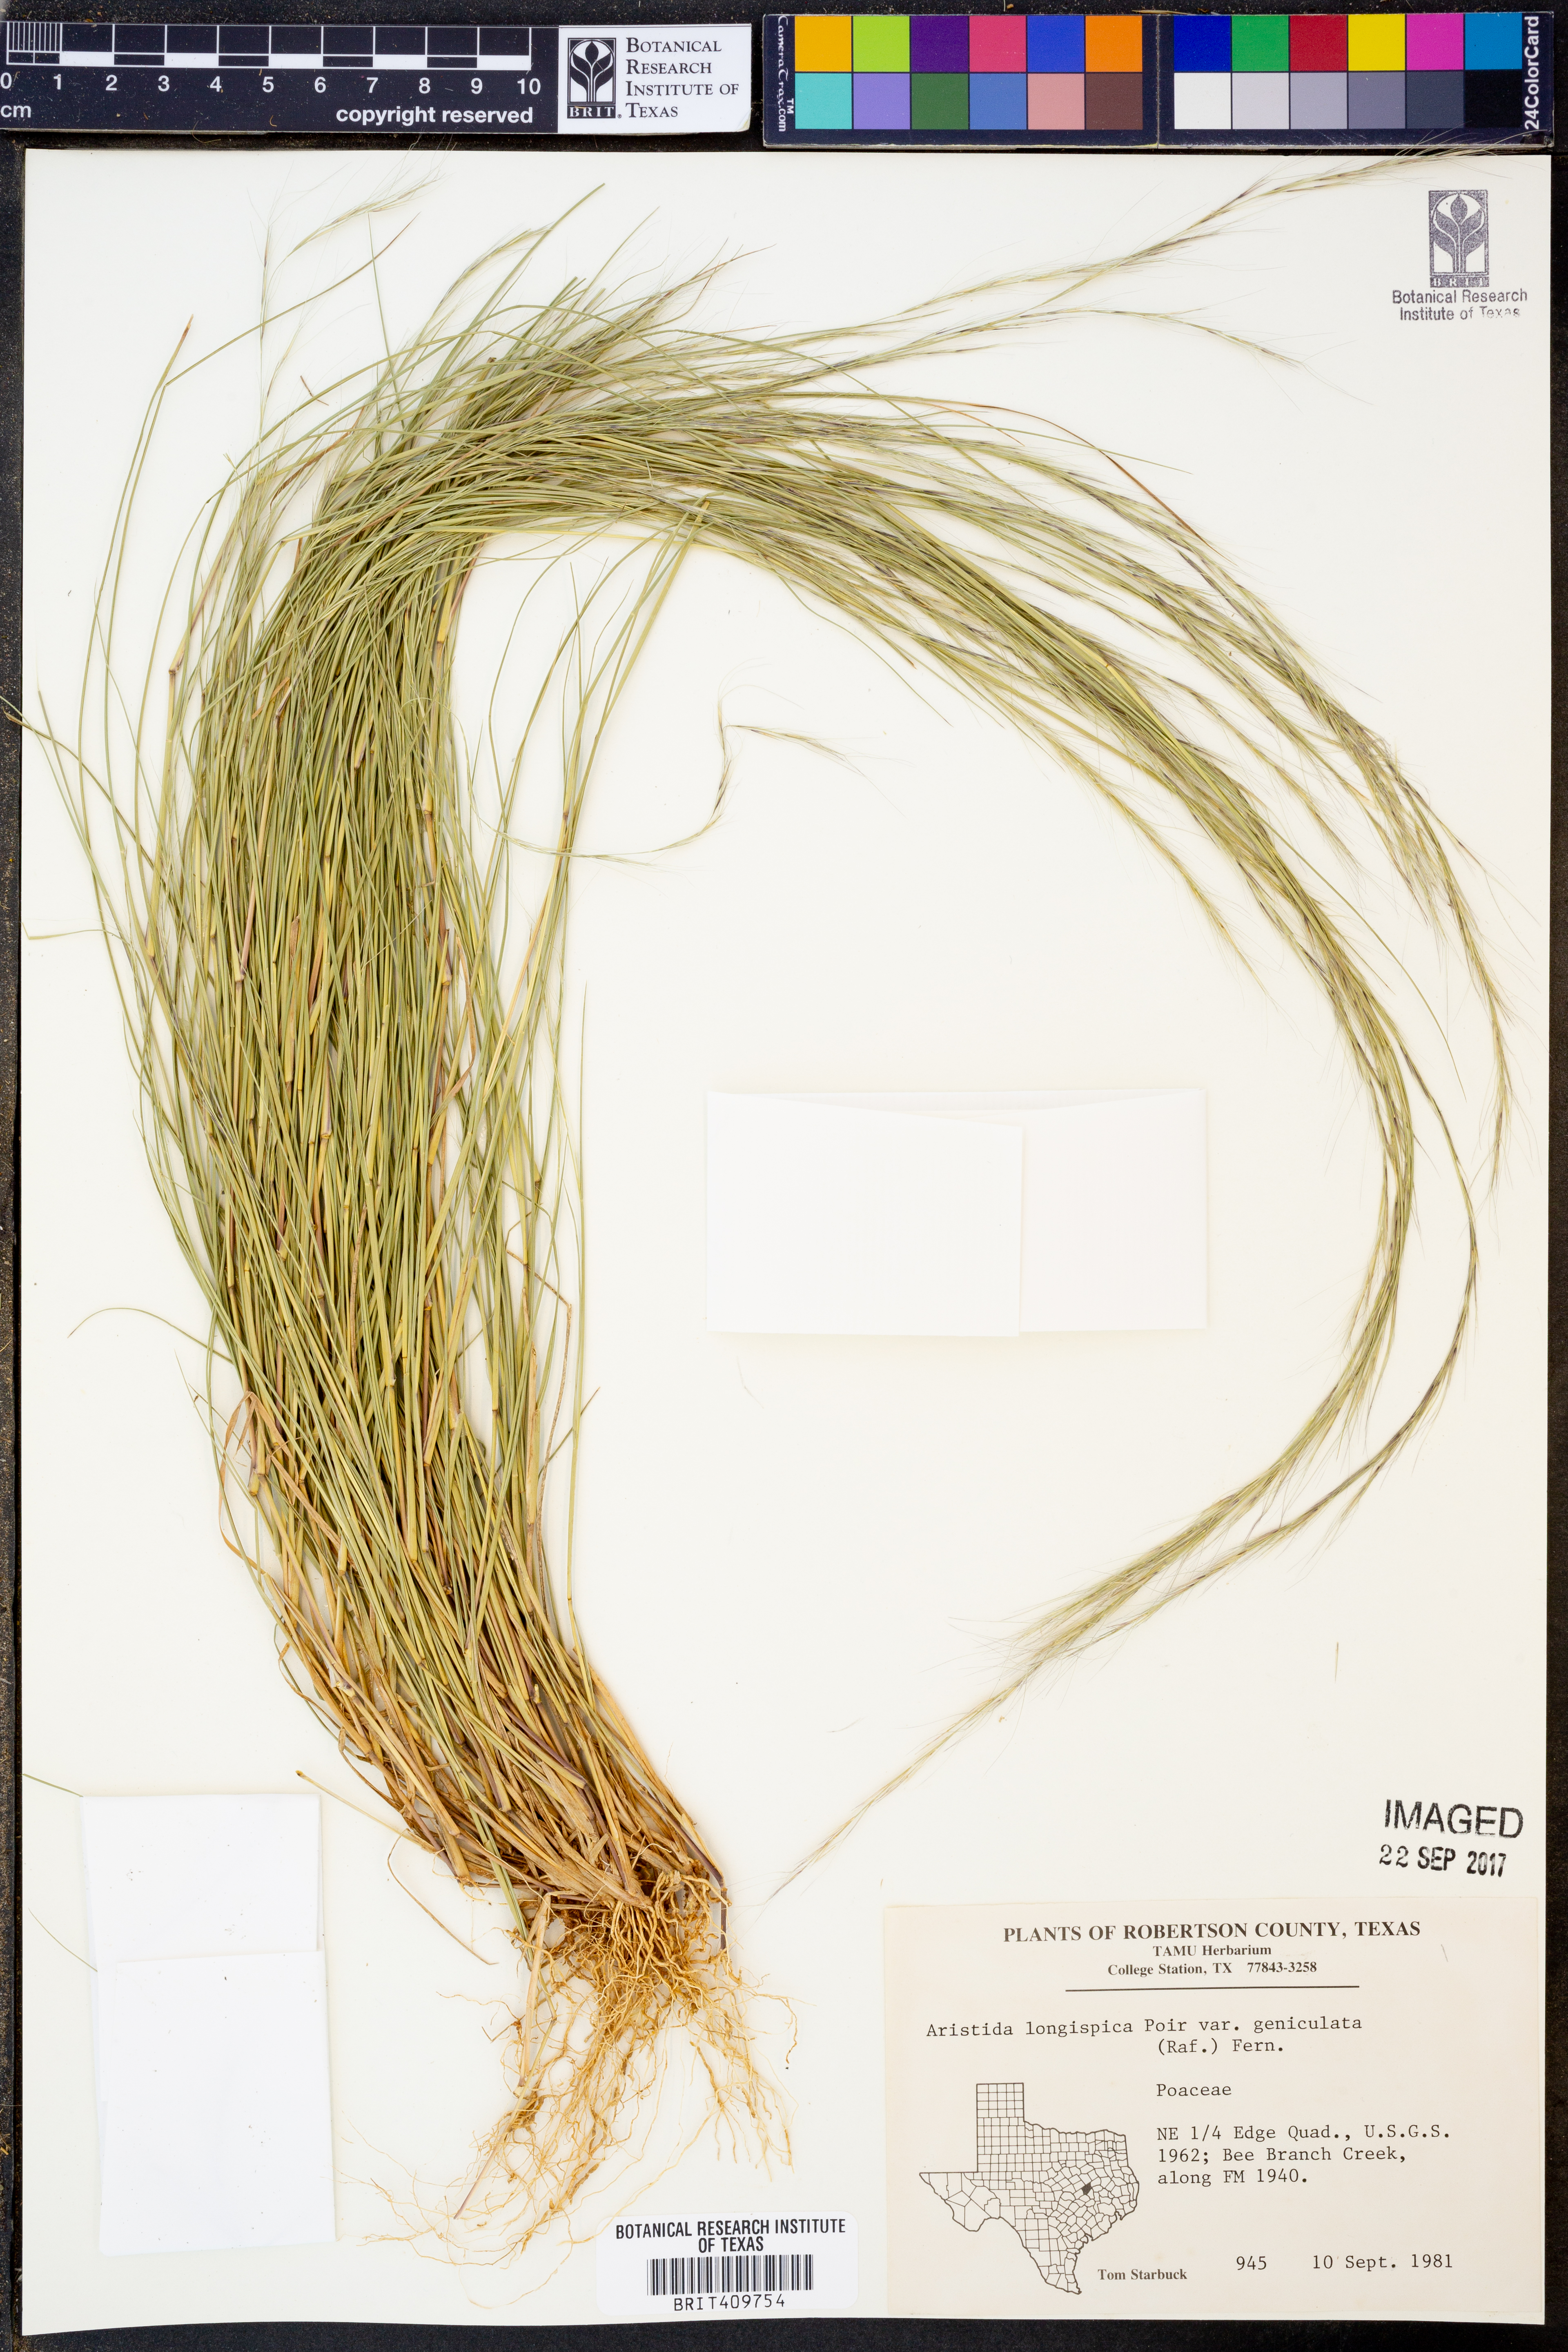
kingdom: Plantae
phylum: Tracheophyta
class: Liliopsida
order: Poales
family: Poaceae
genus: Aristida
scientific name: Aristida longespica
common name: Long-spiked triple-awned grass
